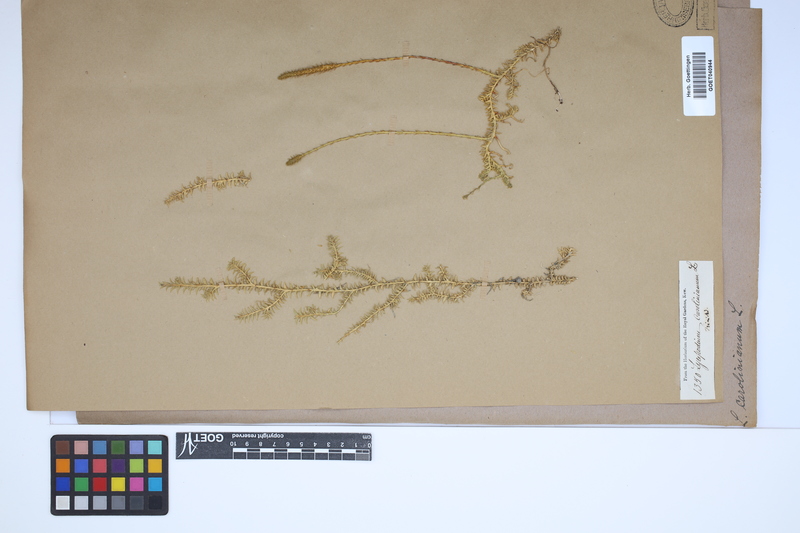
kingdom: Plantae
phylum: Tracheophyta
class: Lycopodiopsida
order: Lycopodiales
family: Lycopodiaceae
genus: Brownseya
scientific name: Brownseya serpentina
